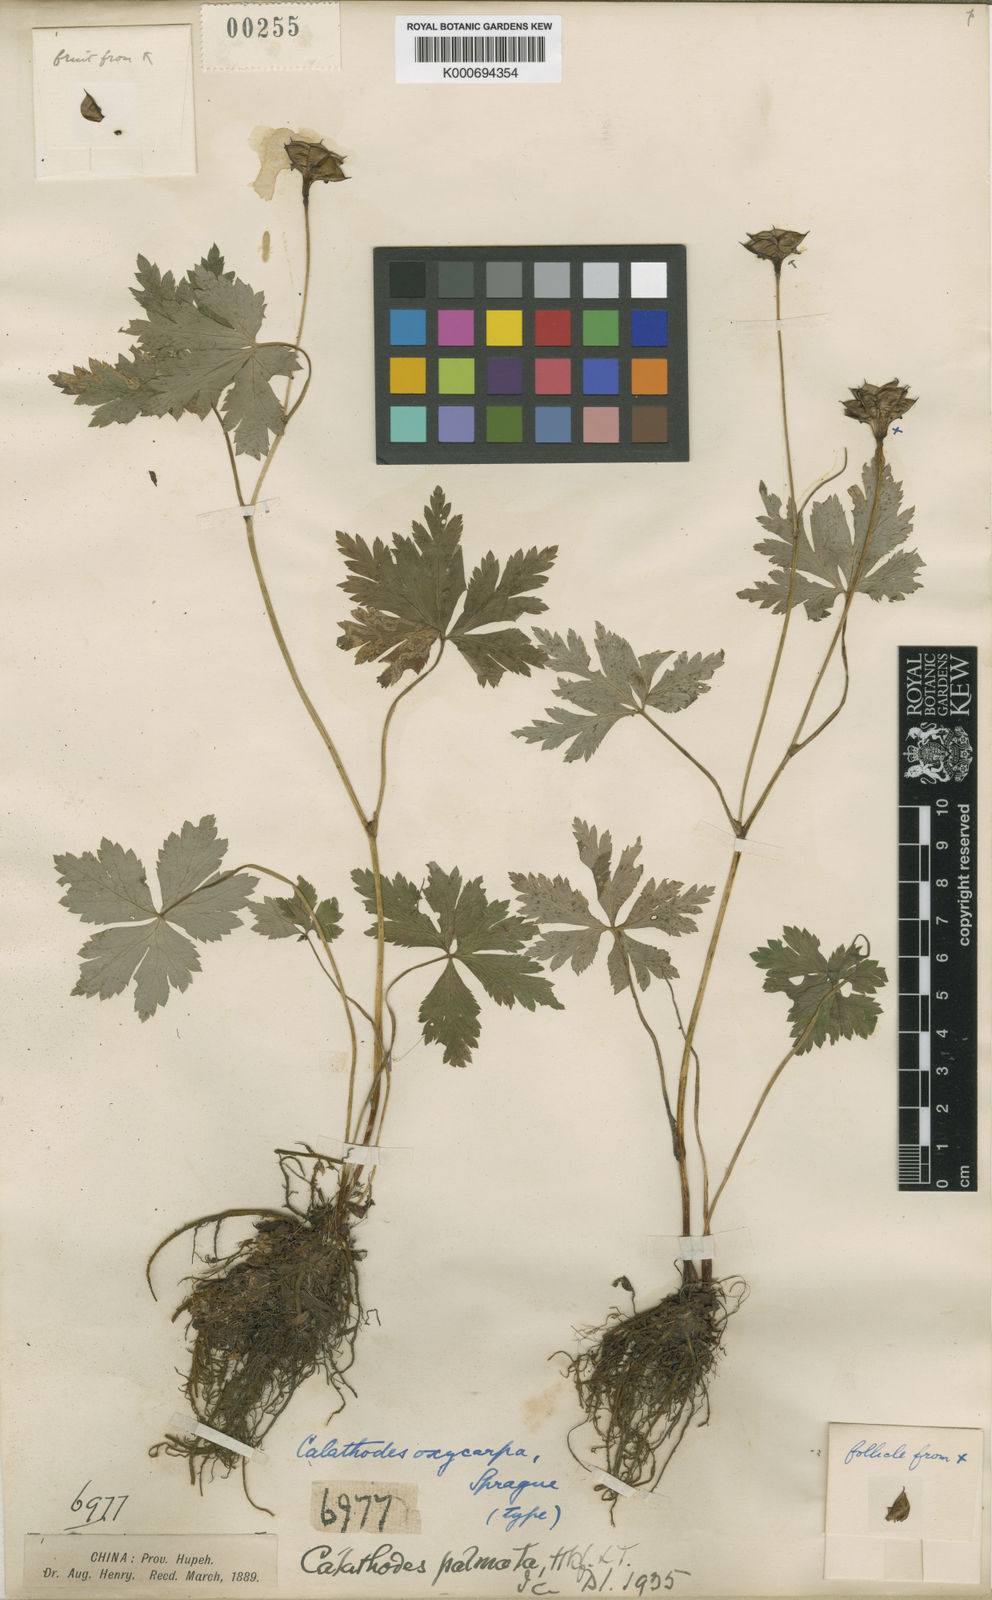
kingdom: Plantae
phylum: Tracheophyta
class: Magnoliopsida
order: Ranunculales
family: Ranunculaceae
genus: Calathodes
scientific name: Calathodes oxycarpa
